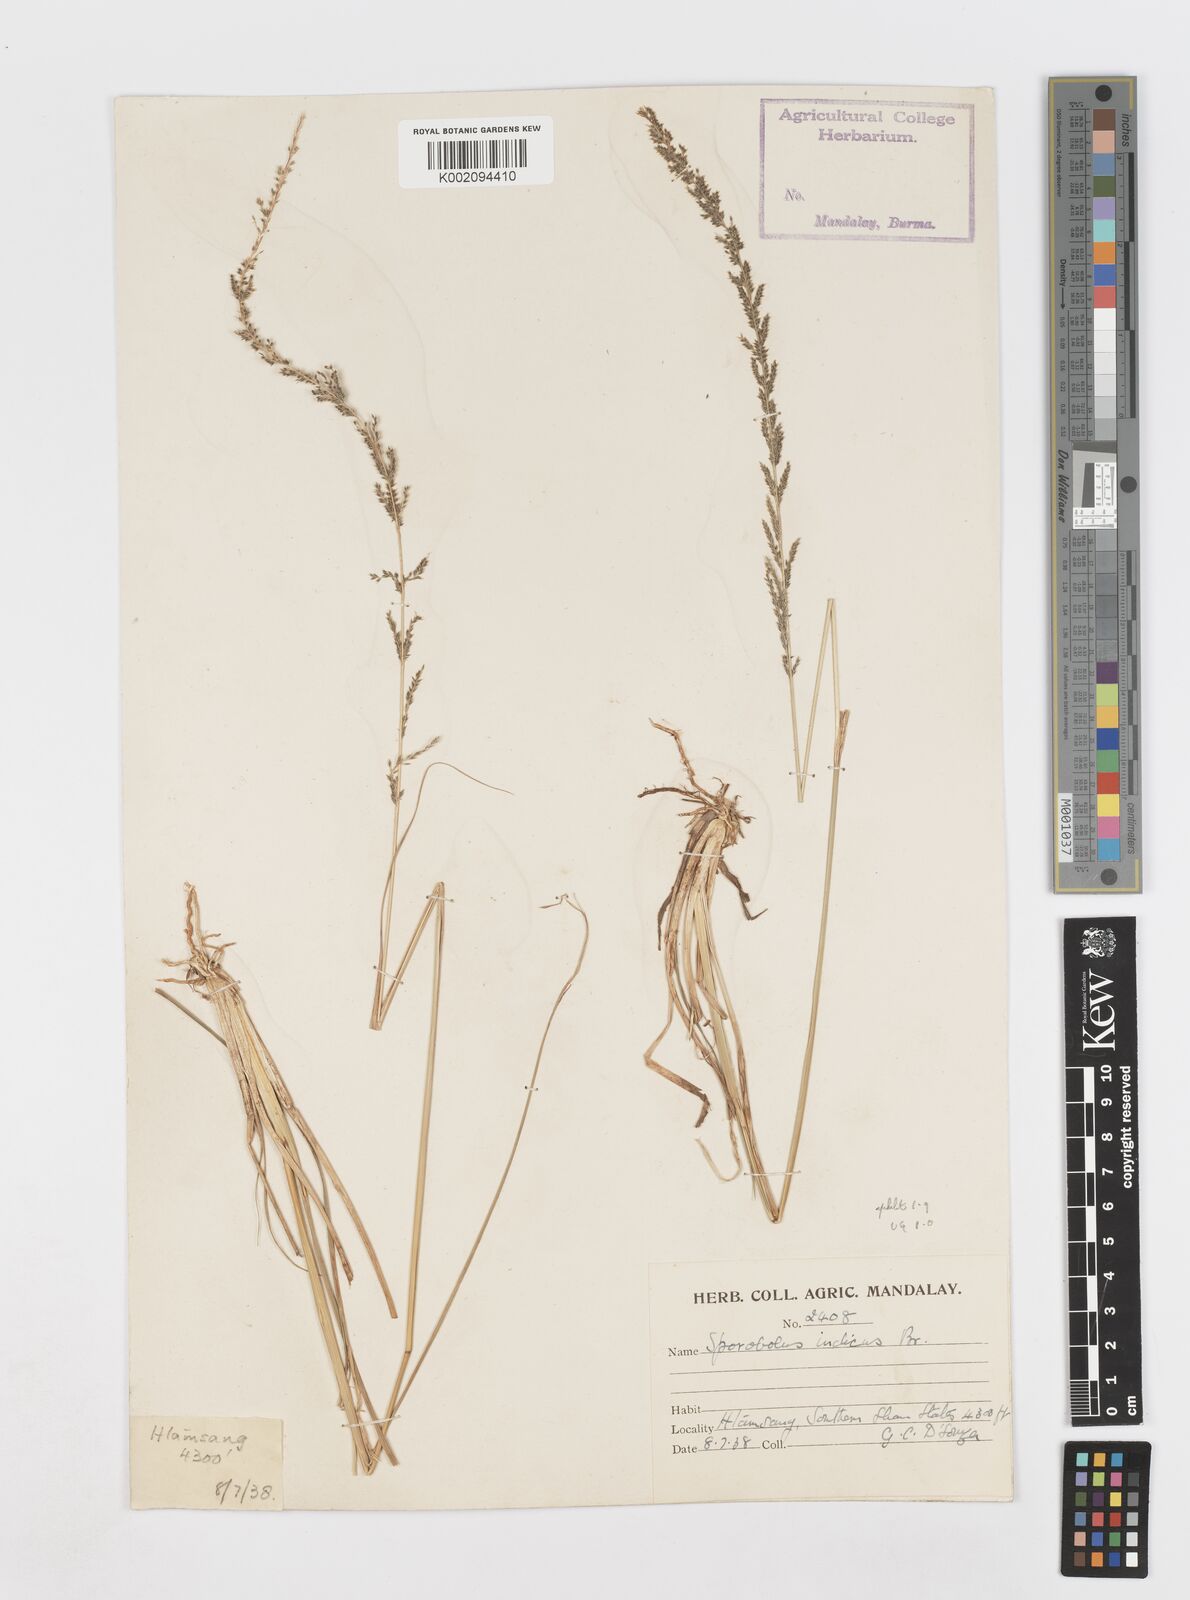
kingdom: Plantae
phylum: Tracheophyta
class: Liliopsida
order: Poales
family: Poaceae
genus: Sporobolus
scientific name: Sporobolus fertilis
